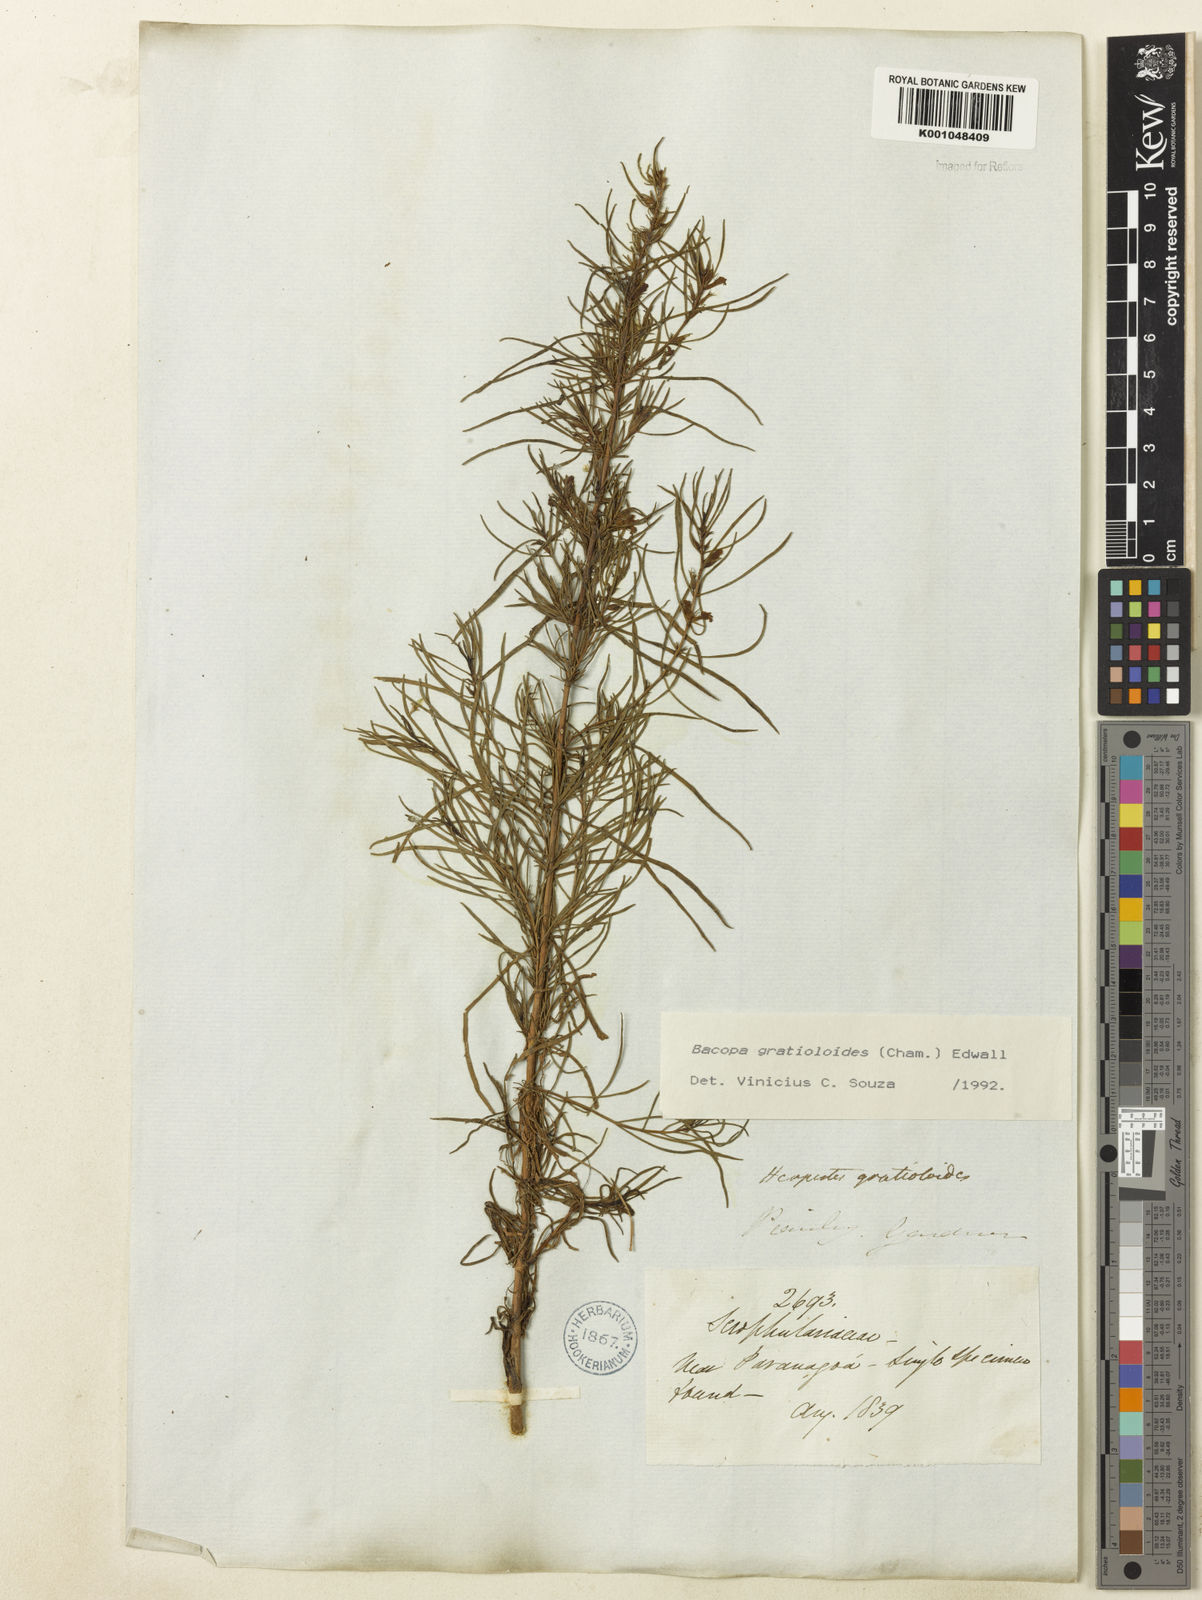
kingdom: Plantae
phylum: Tracheophyta
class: Magnoliopsida
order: Lamiales
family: Plantaginaceae
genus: Bacopa
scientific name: Bacopa
